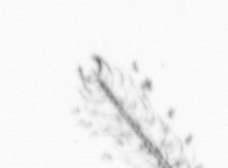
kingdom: Chromista
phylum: Ochrophyta
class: Bacillariophyceae
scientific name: Bacillariophyceae
